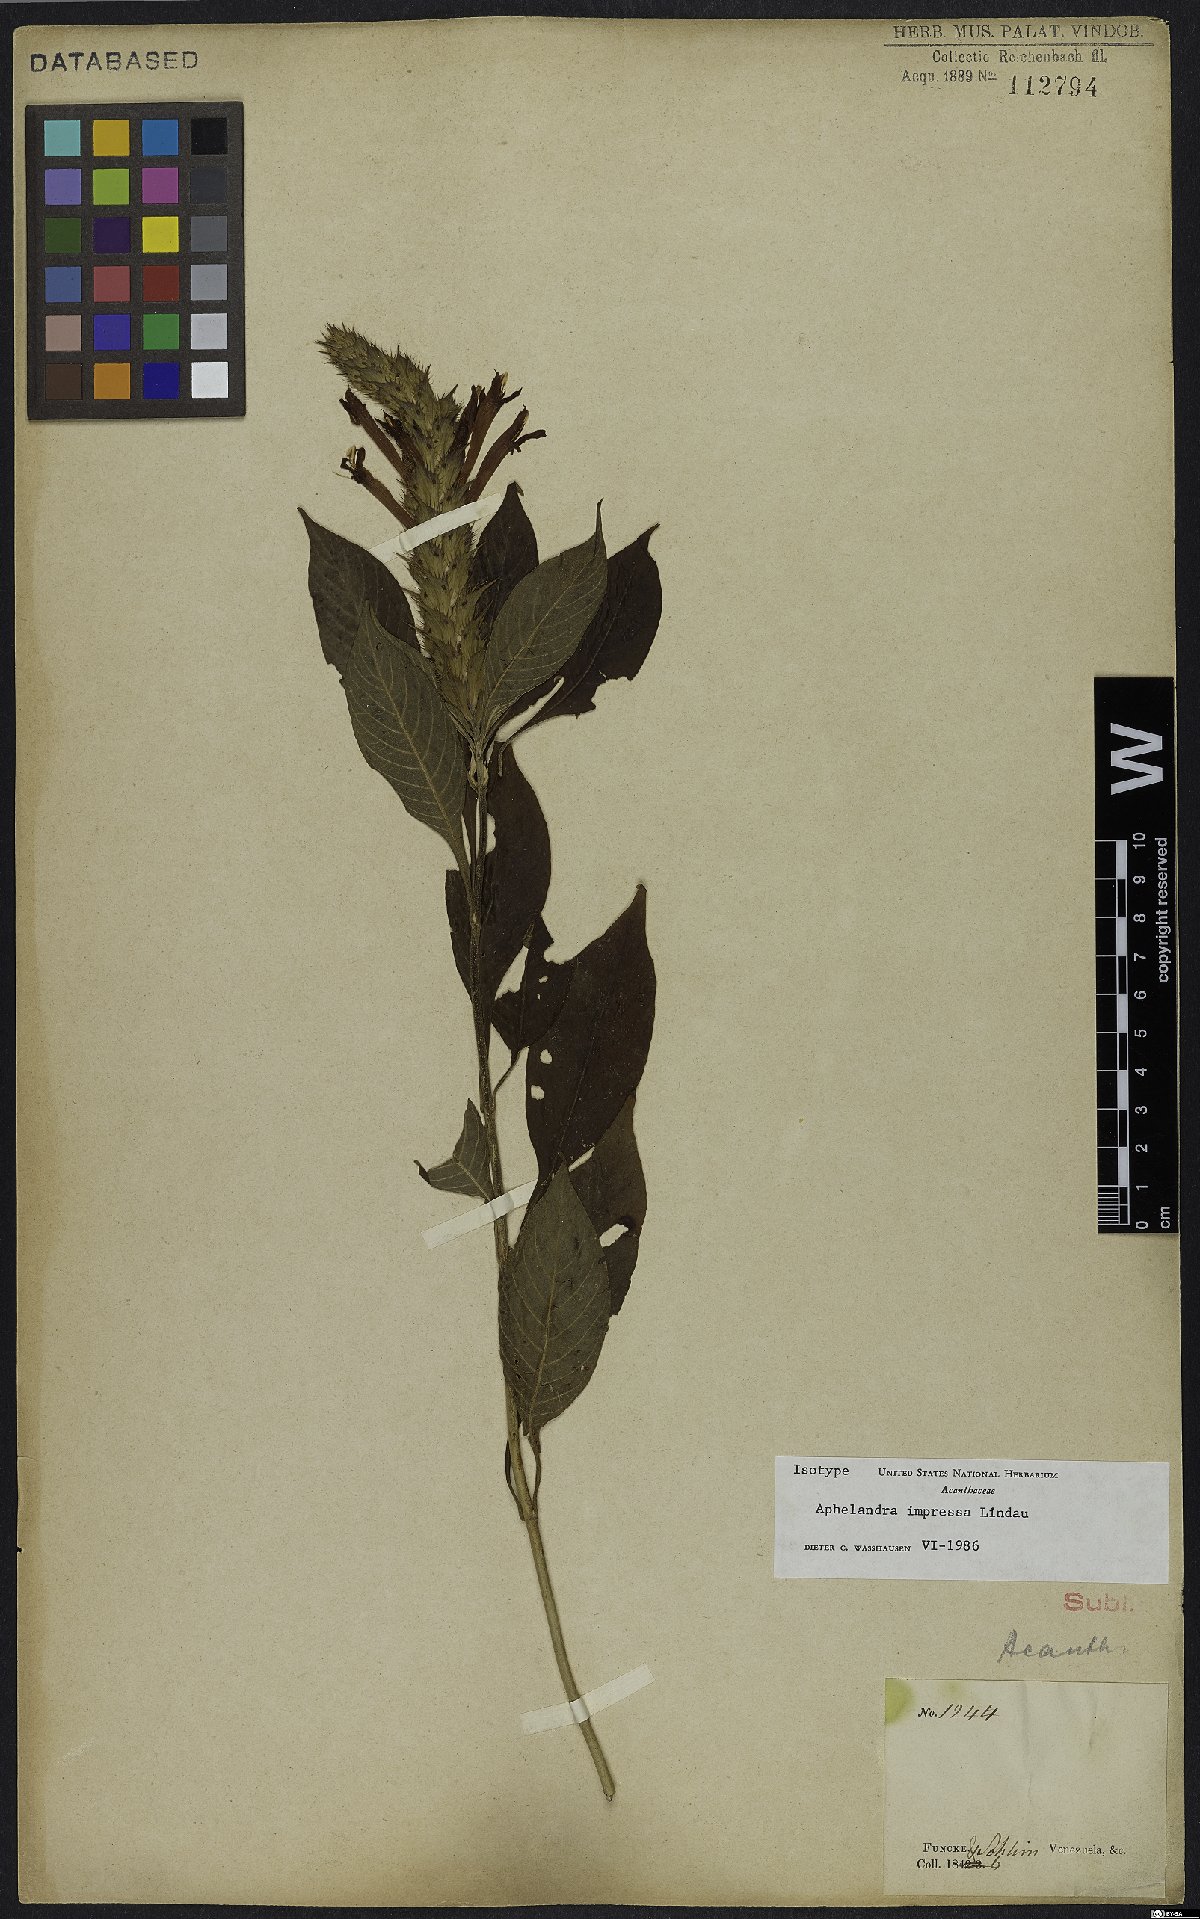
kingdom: Plantae
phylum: Tracheophyta
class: Magnoliopsida
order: Lamiales
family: Acanthaceae
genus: Aphelandra
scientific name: Aphelandra impressa
